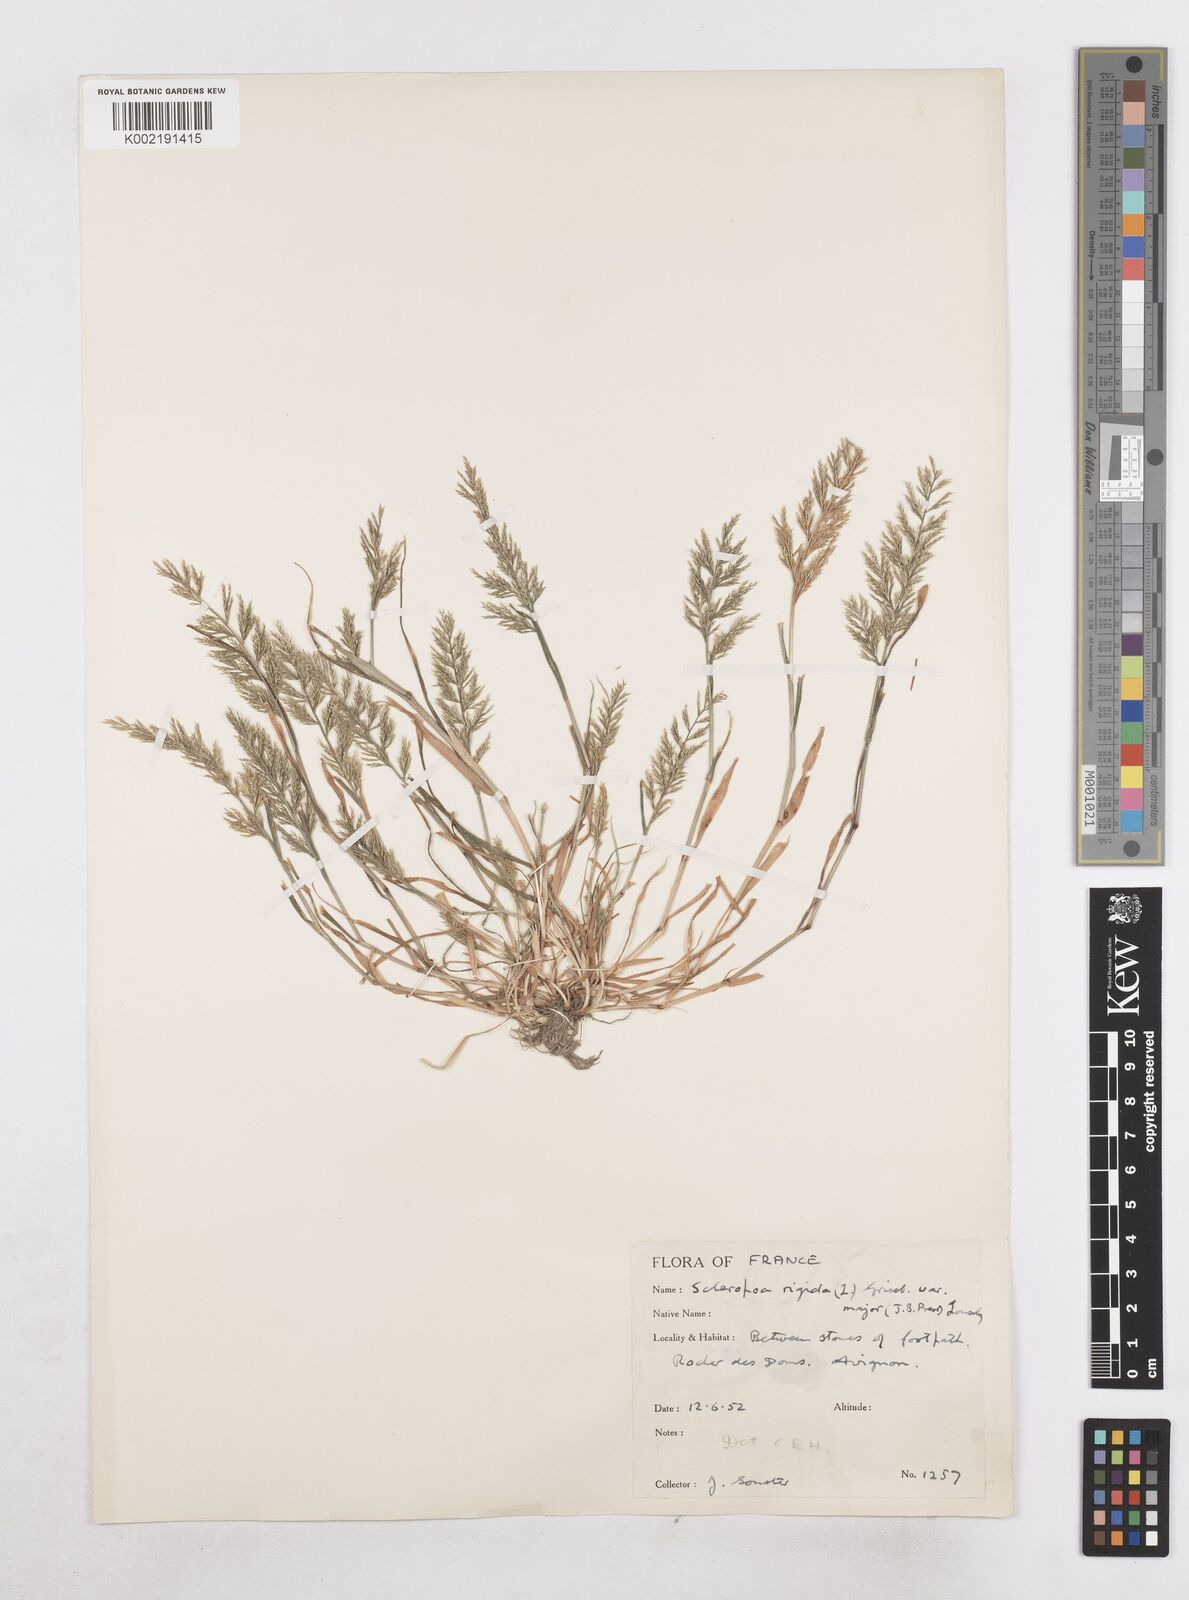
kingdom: Plantae
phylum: Tracheophyta
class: Liliopsida
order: Poales
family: Poaceae
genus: Catapodium
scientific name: Catapodium rigidum
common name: Fern-grass
